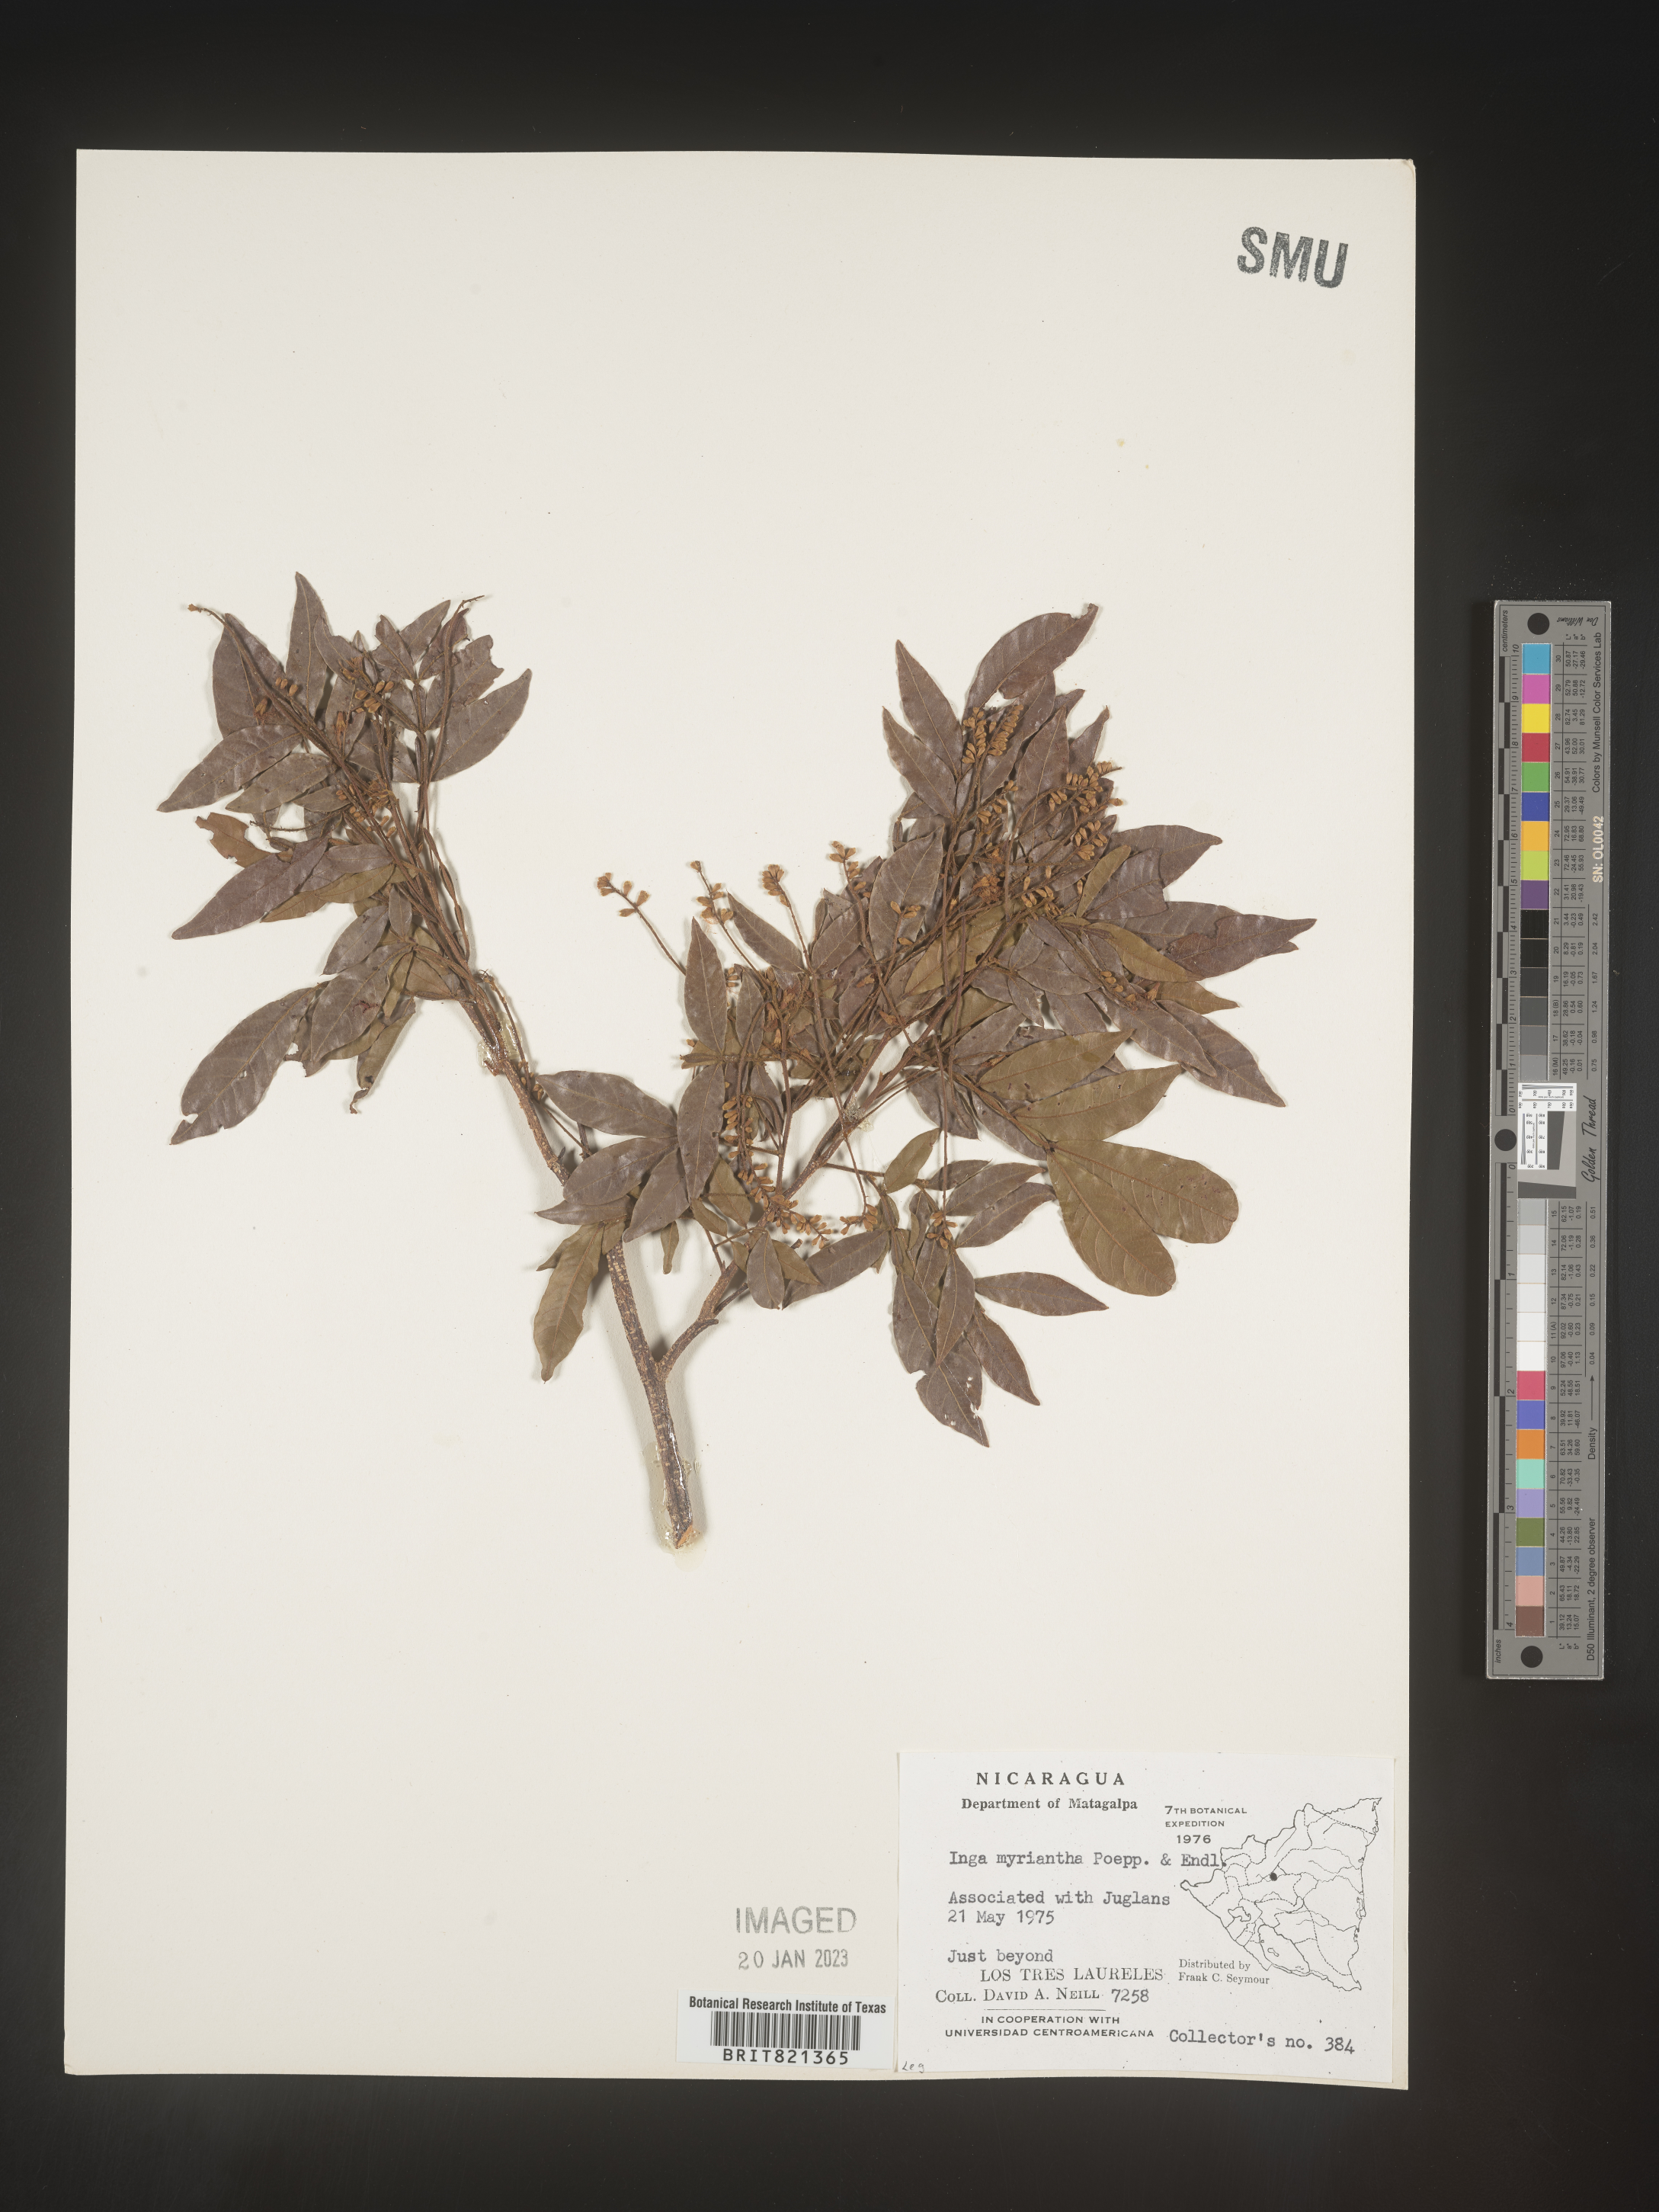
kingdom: Plantae
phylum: Tracheophyta
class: Magnoliopsida
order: Fabales
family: Fabaceae
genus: Inga
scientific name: Inga
